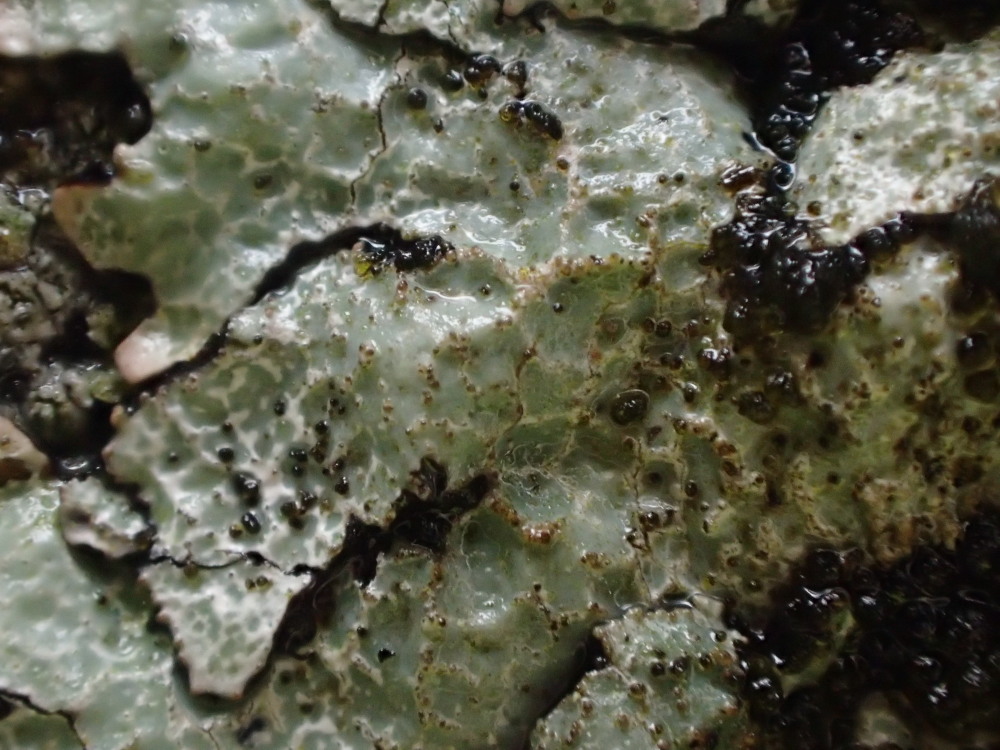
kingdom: Fungi
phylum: Ascomycota
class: Lecanoromycetes
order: Lecanorales
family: Parmeliaceae
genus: Parmelia
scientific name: Parmelia saxatilis
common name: farve-skållav
